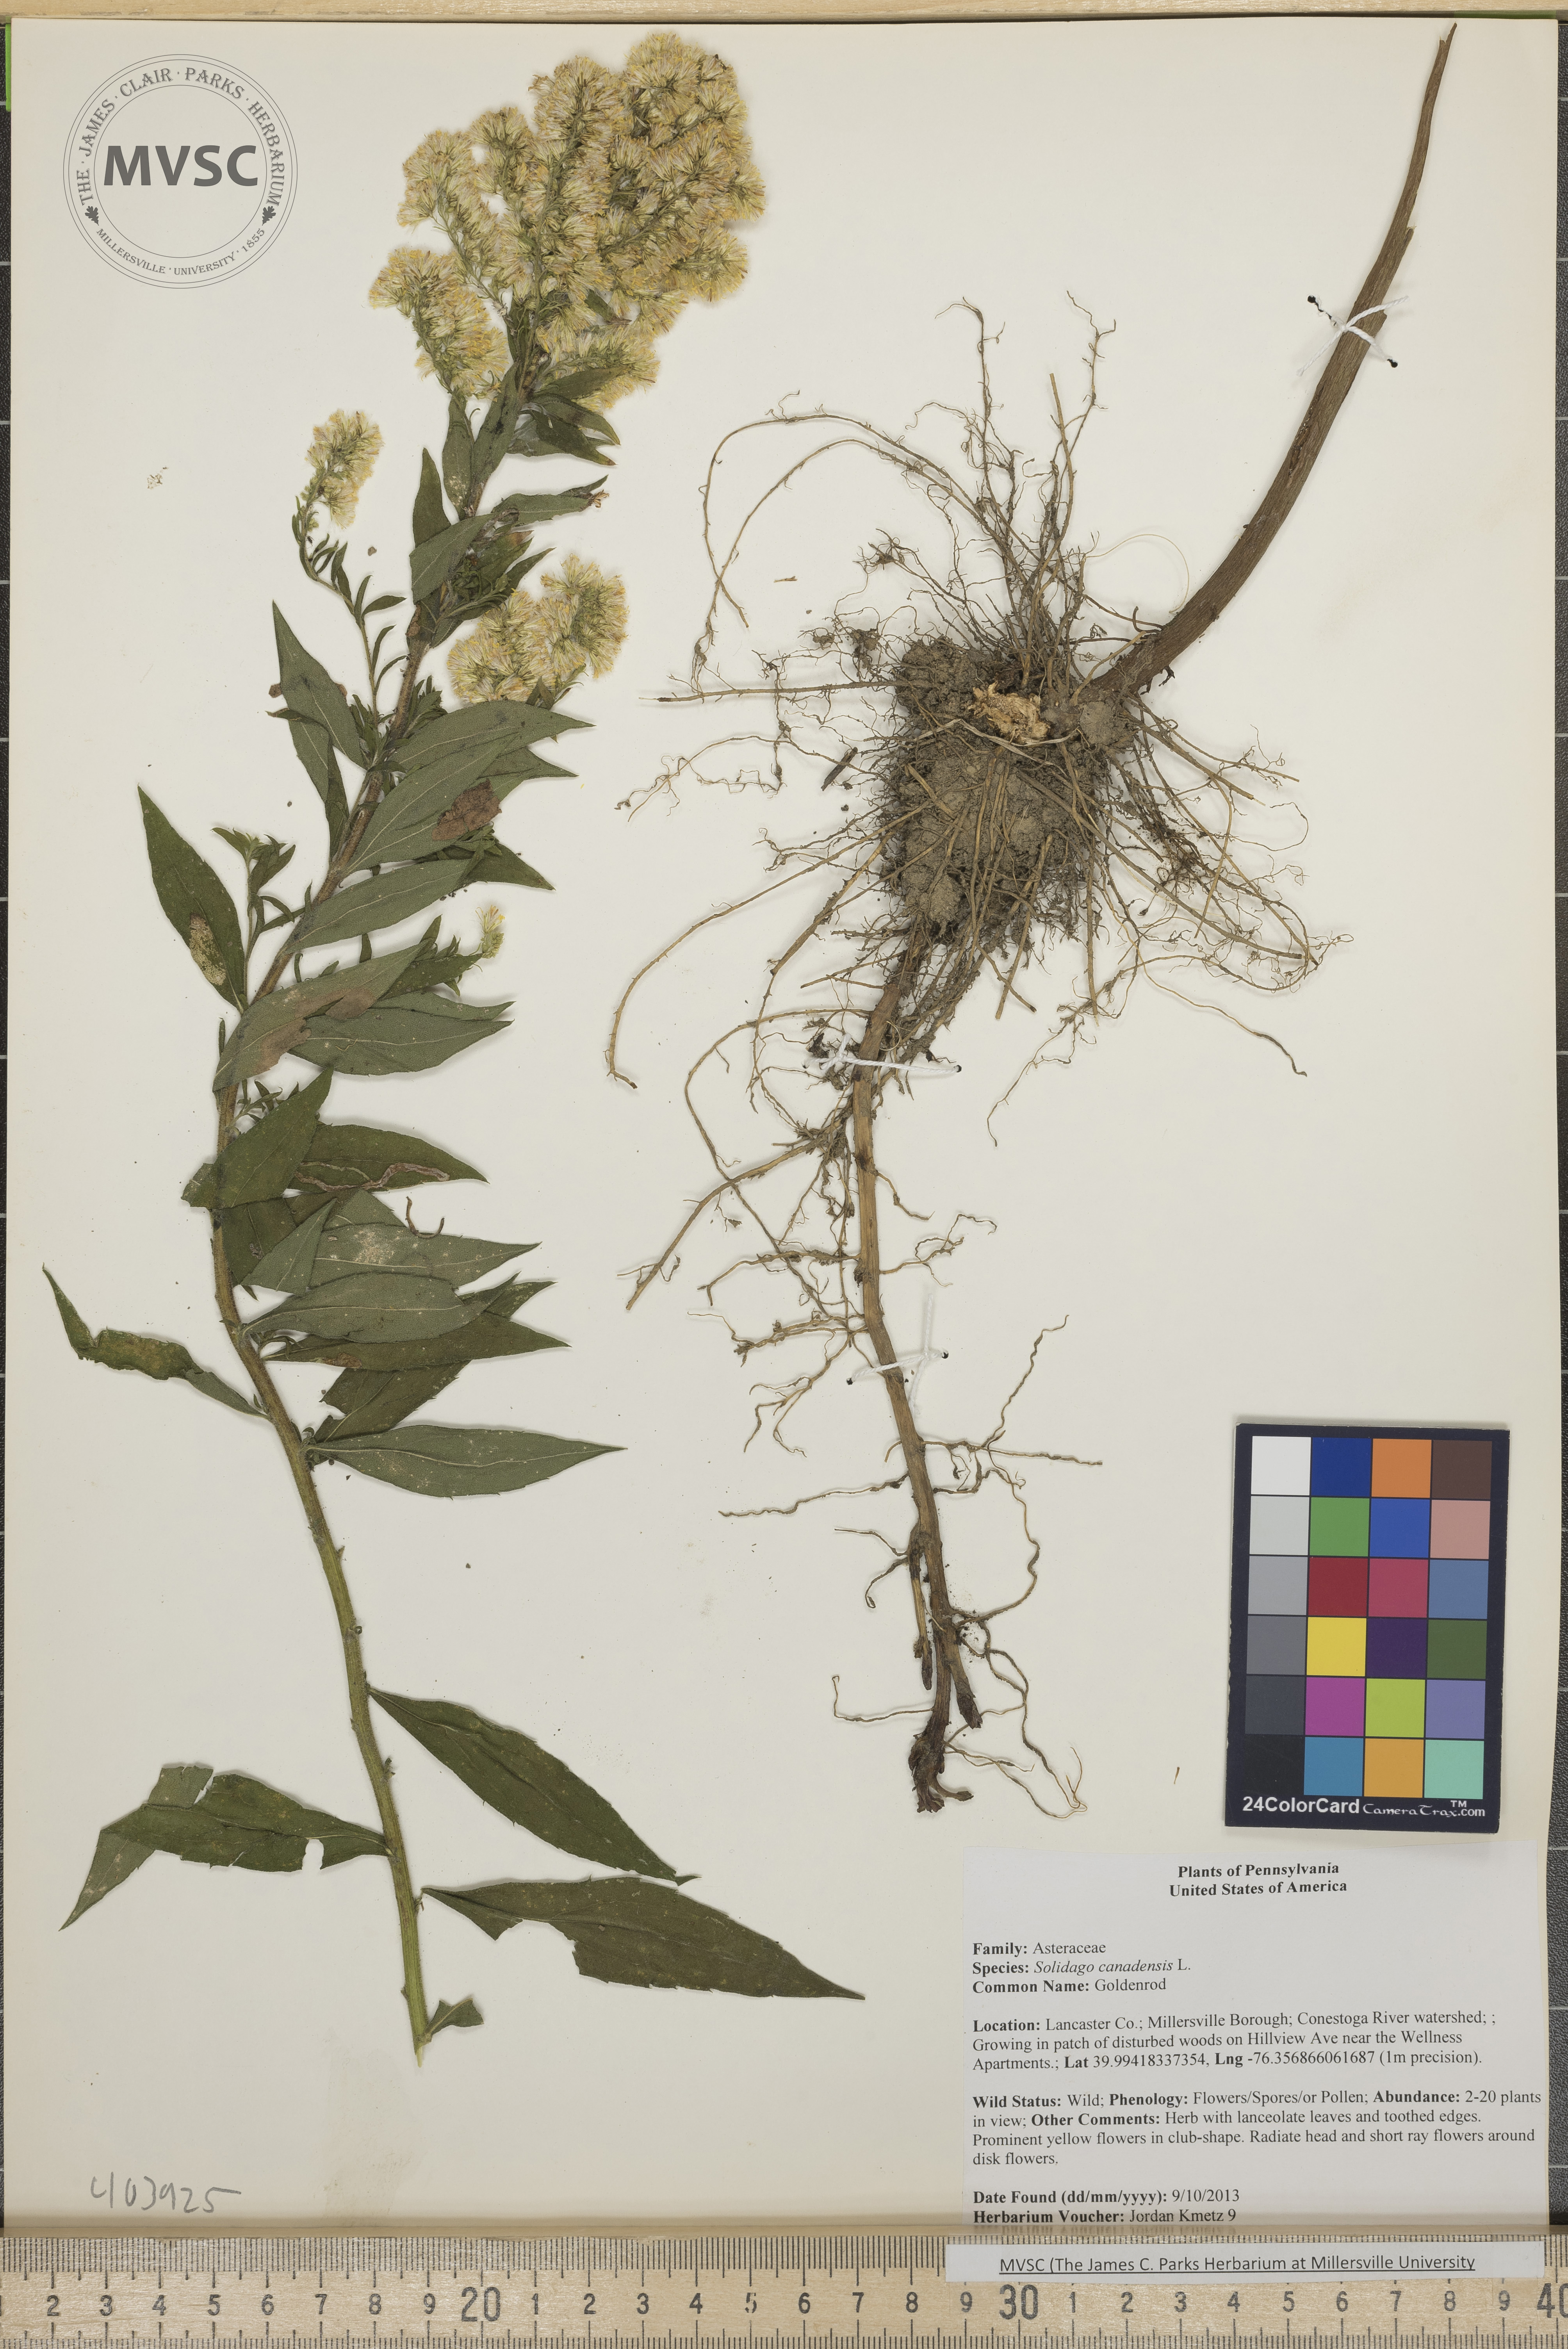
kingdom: Plantae
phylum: Tracheophyta
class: Magnoliopsida
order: Asterales
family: Asteraceae
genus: Solidago
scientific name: Solidago altissima
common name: Late goldenrod
